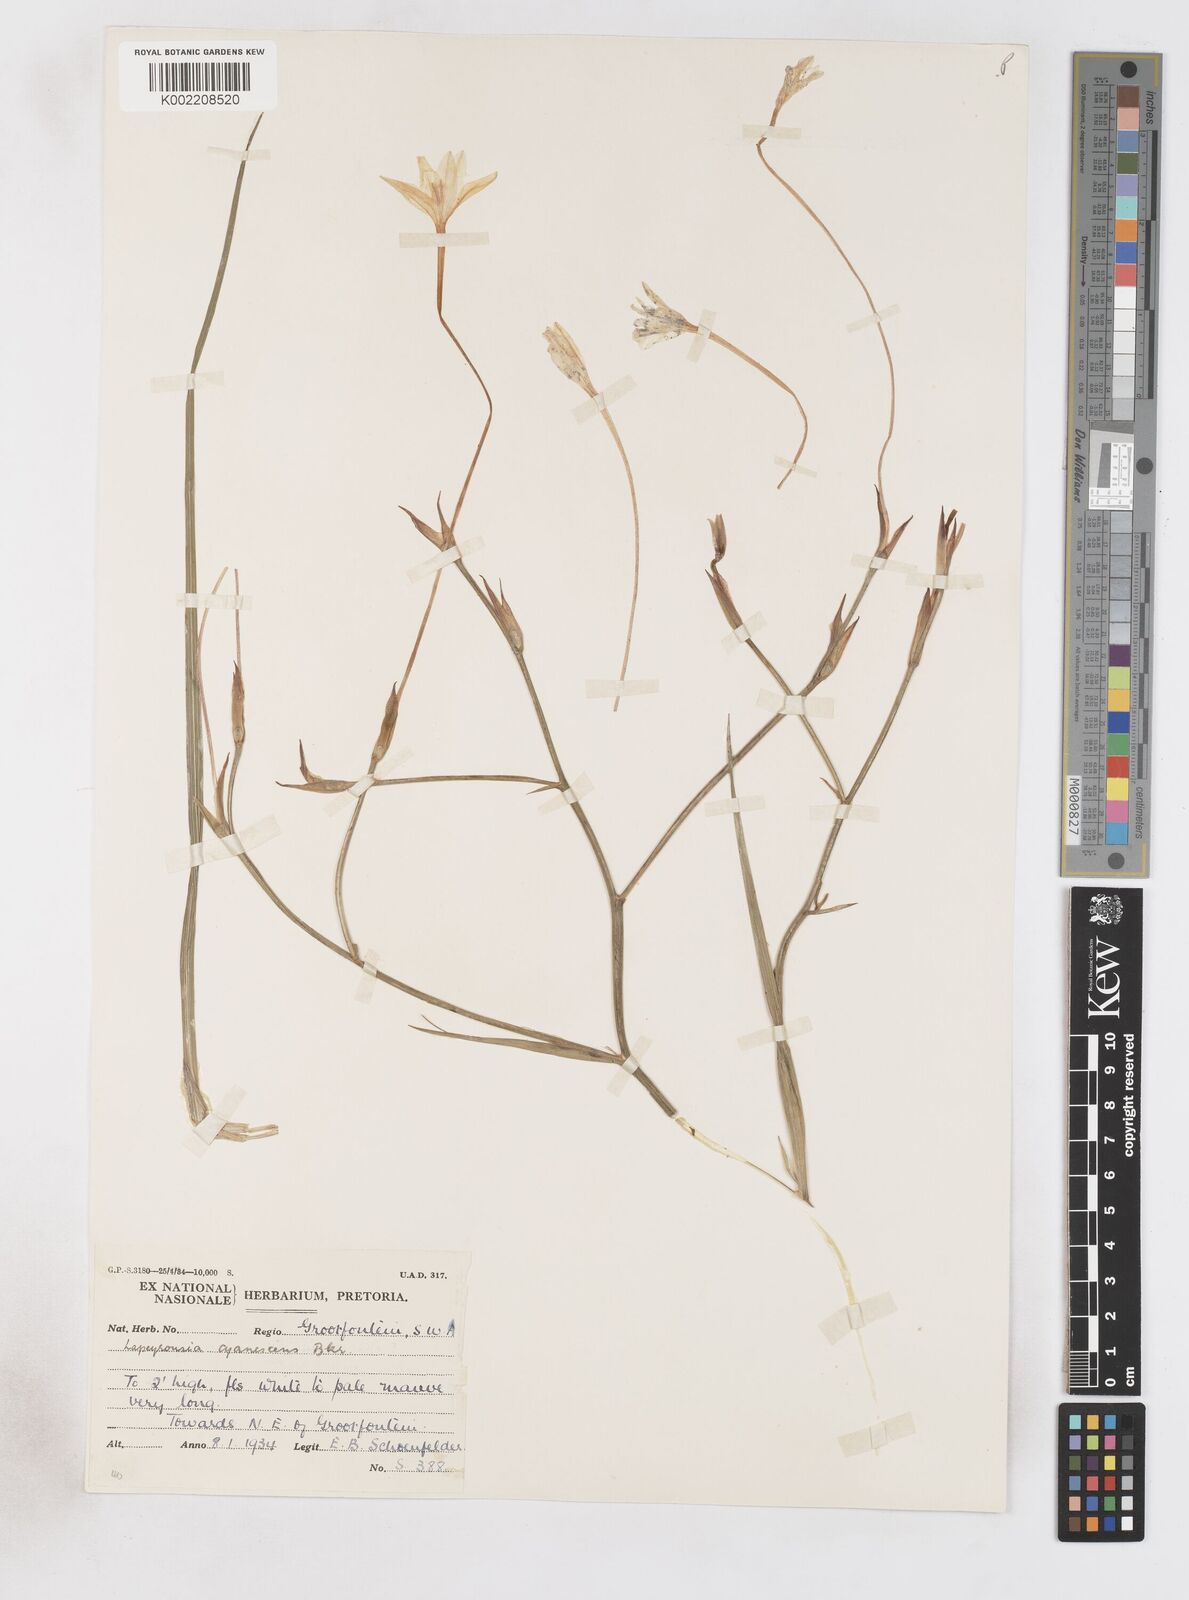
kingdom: Plantae
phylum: Tracheophyta
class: Liliopsida
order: Asparagales
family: Iridaceae
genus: Afrosolen
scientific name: Afrosolen schimperi
